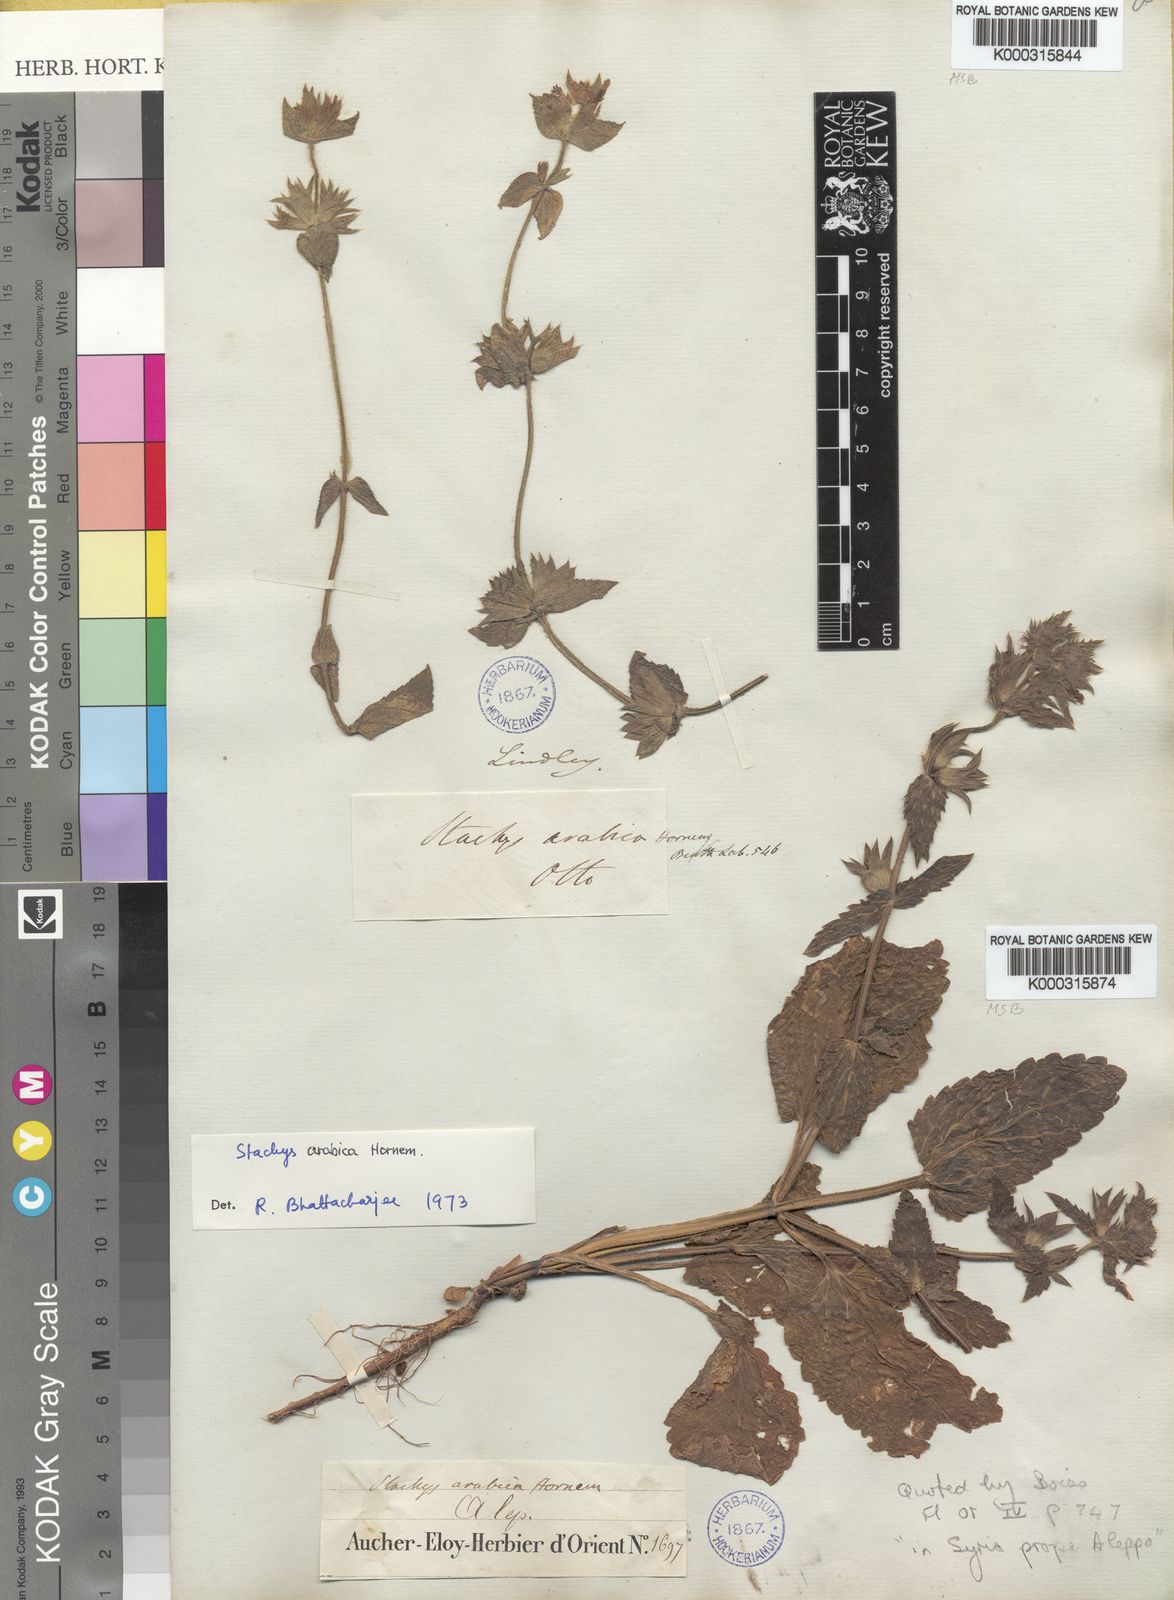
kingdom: Plantae
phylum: Tracheophyta
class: Magnoliopsida
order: Lamiales
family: Lamiaceae
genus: Stachys
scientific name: Stachys arabica
